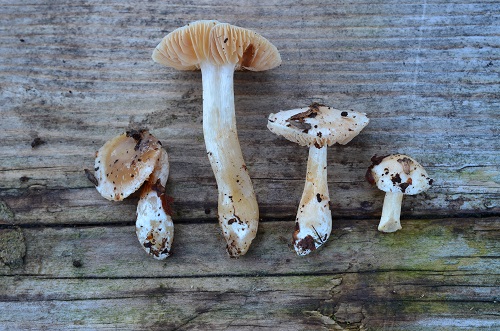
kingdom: Fungi
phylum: Basidiomycota
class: Agaricomycetes
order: Agaricales
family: Cortinariaceae
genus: Thaxterogaster
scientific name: Thaxterogaster
